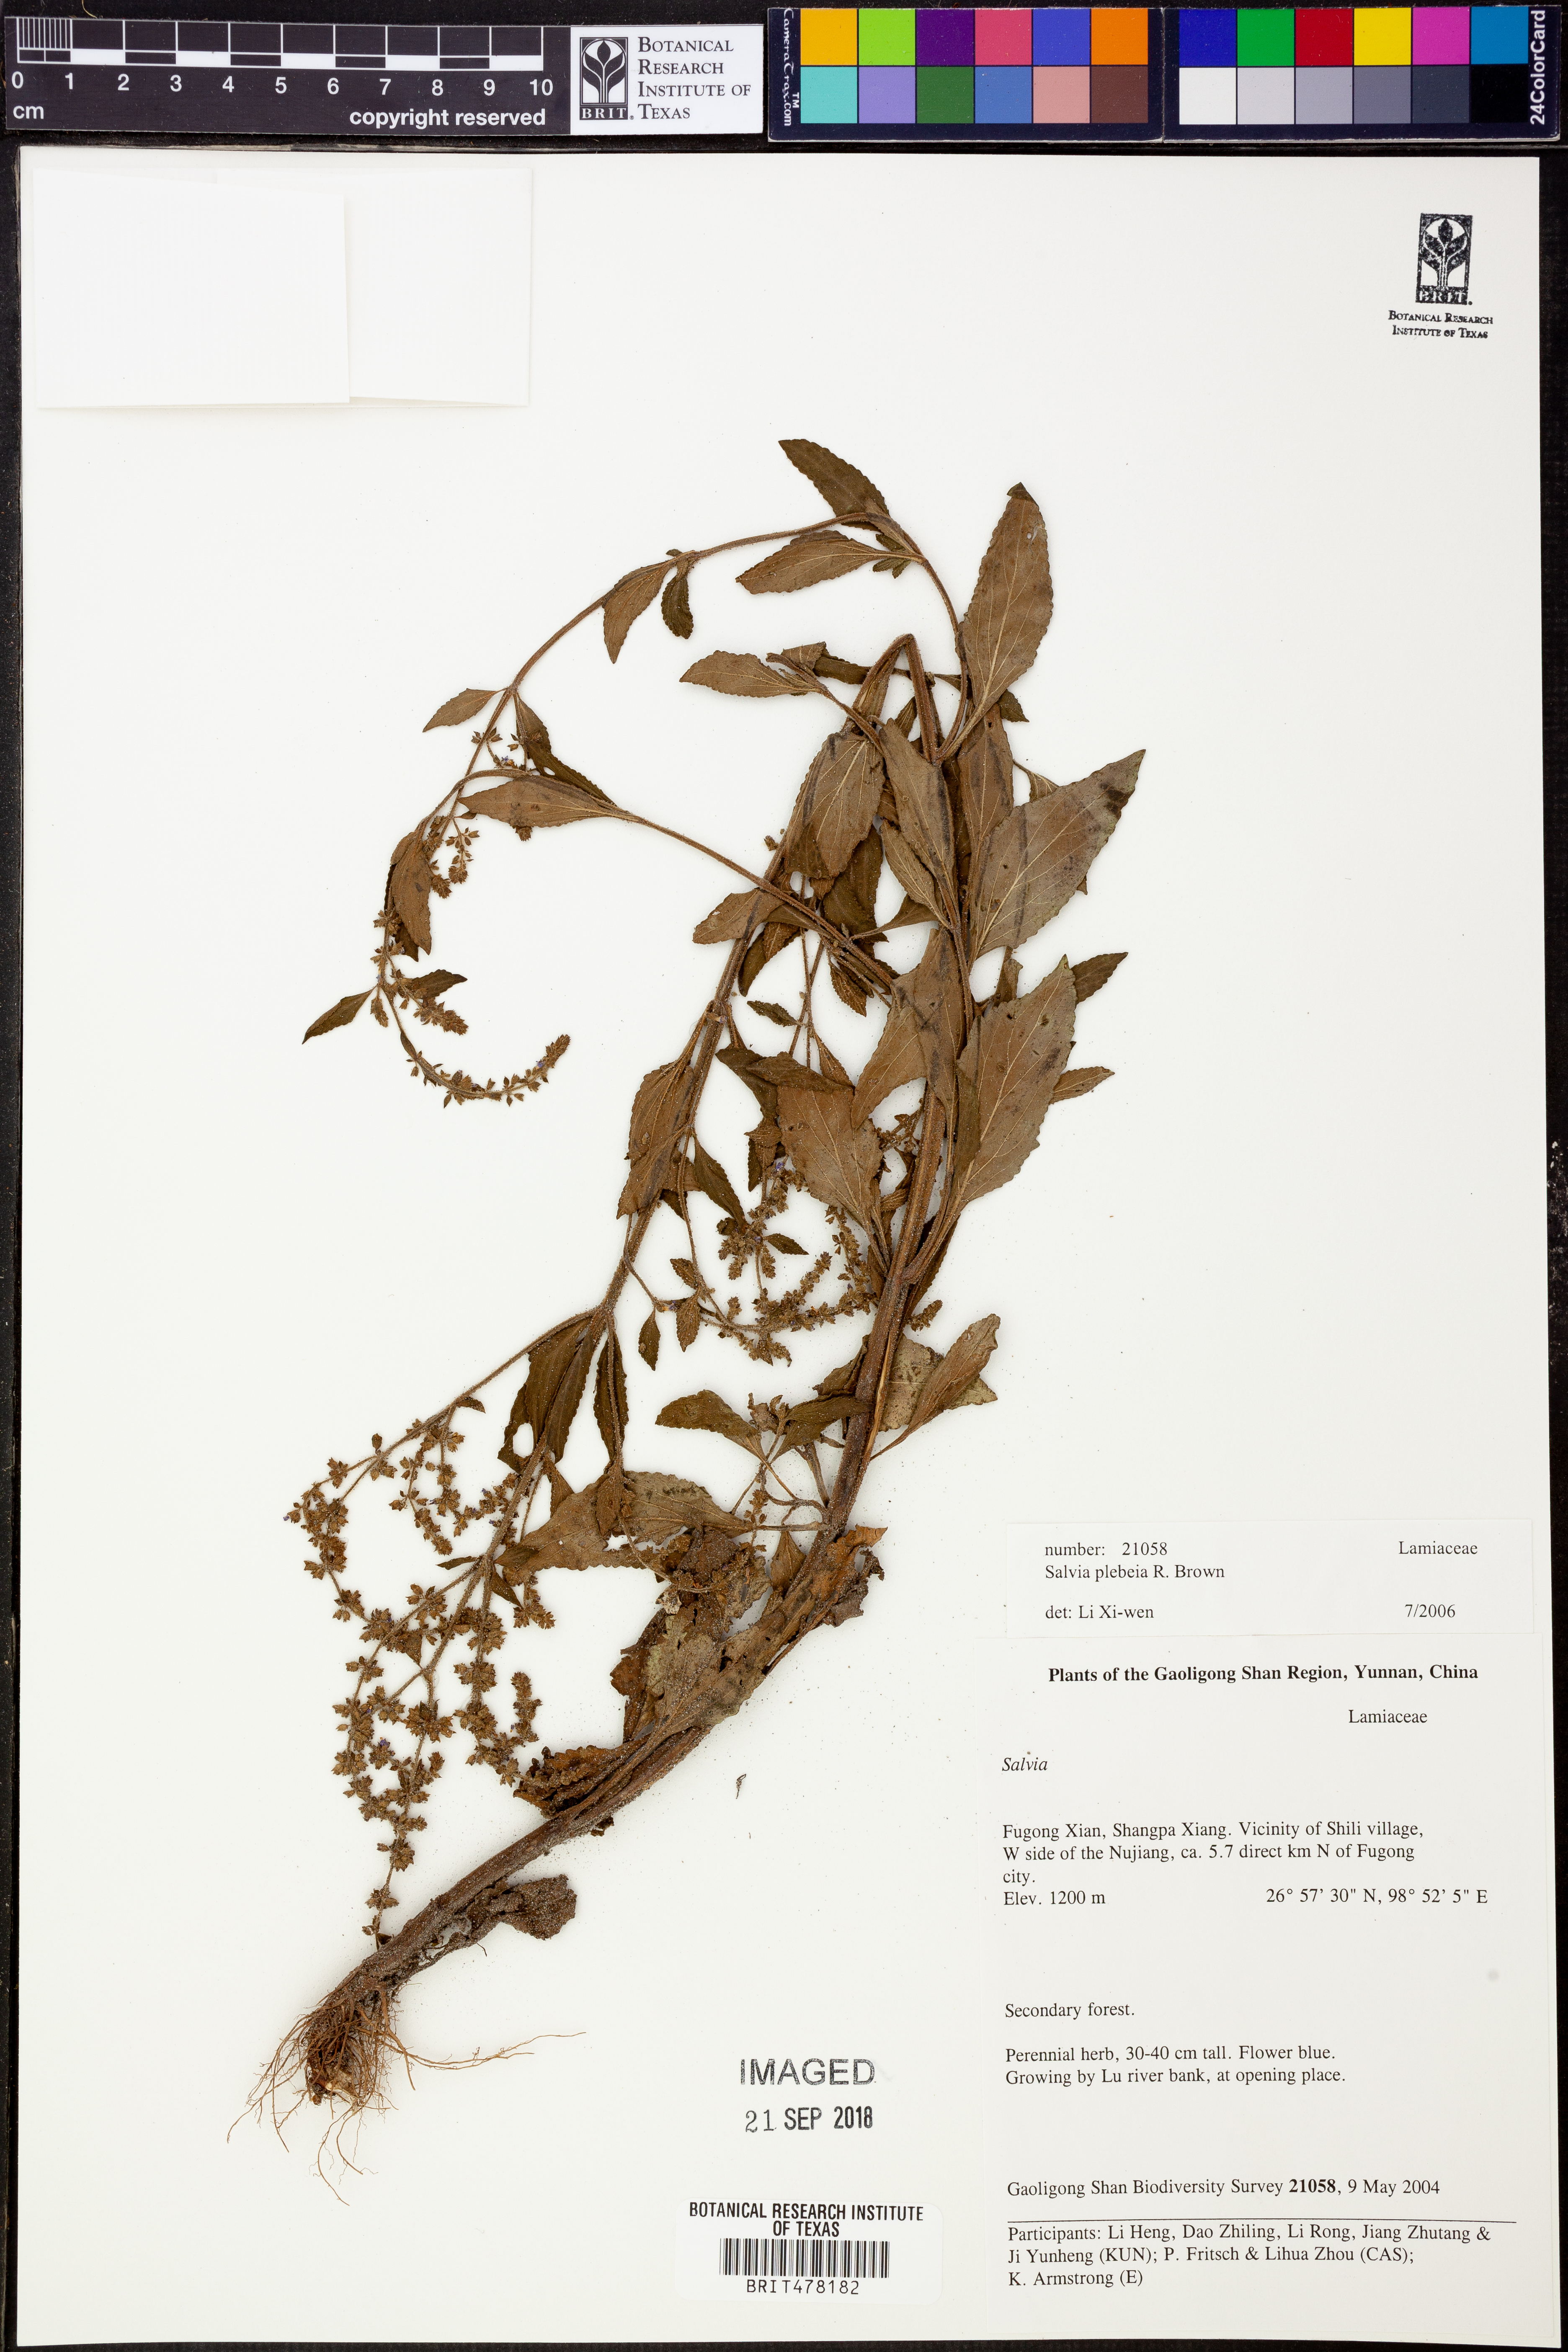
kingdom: Plantae
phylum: Tracheophyta
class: Magnoliopsida
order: Lamiales
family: Lamiaceae
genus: Salvia
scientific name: Salvia plebeia
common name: Australian sage
